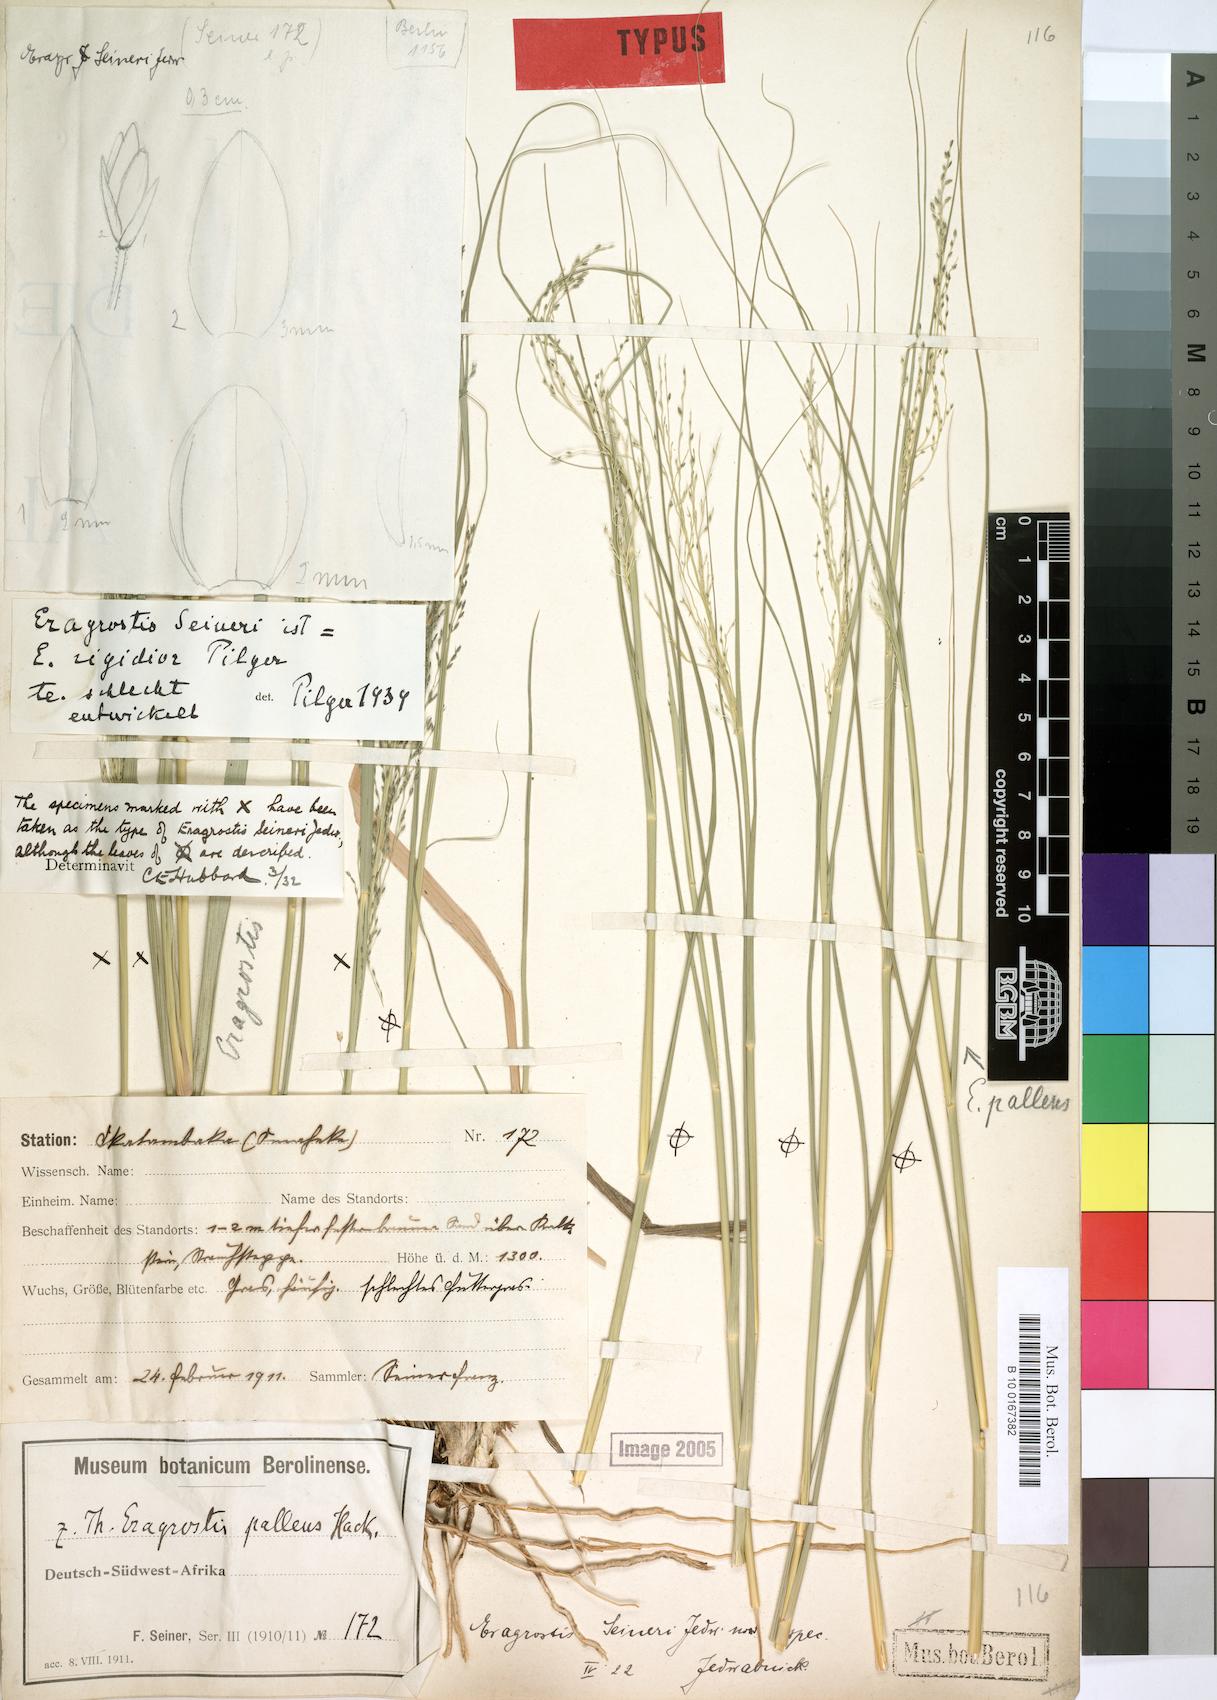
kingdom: Plantae
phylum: Tracheophyta
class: Liliopsida
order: Poales
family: Poaceae
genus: Eragrostis
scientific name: Eragrostis cylindriflora
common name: Cylinderflower lovegrass
